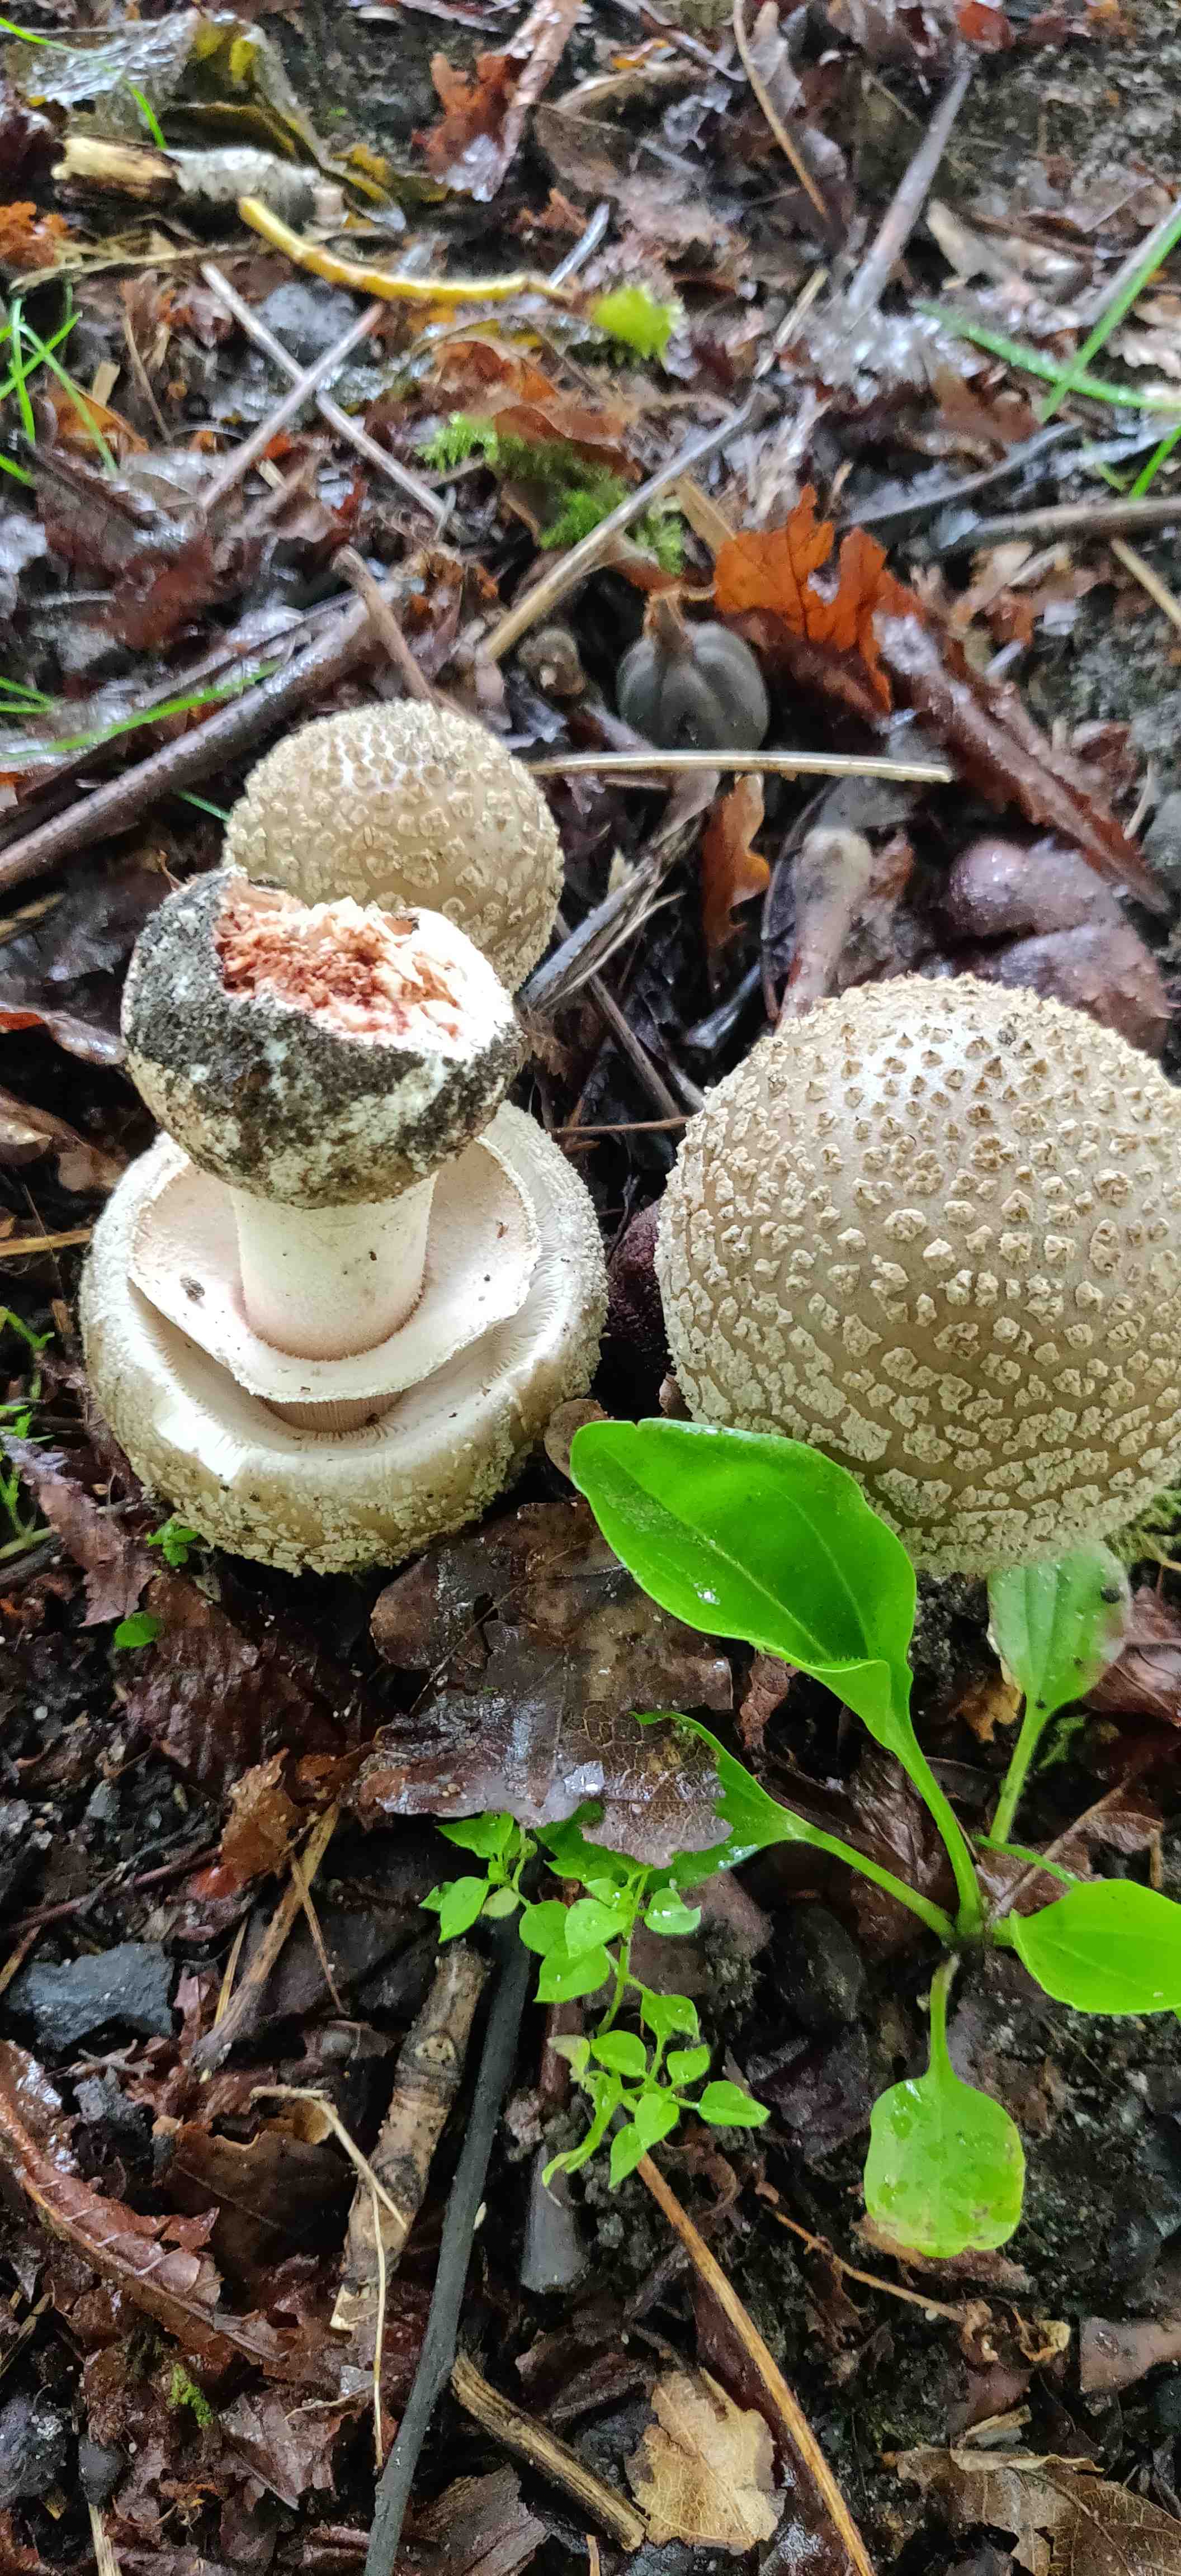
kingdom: Fungi
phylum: Basidiomycota
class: Agaricomycetes
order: Agaricales
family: Amanitaceae
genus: Amanita
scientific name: Amanita rubescens
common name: rødmende fluesvamp
